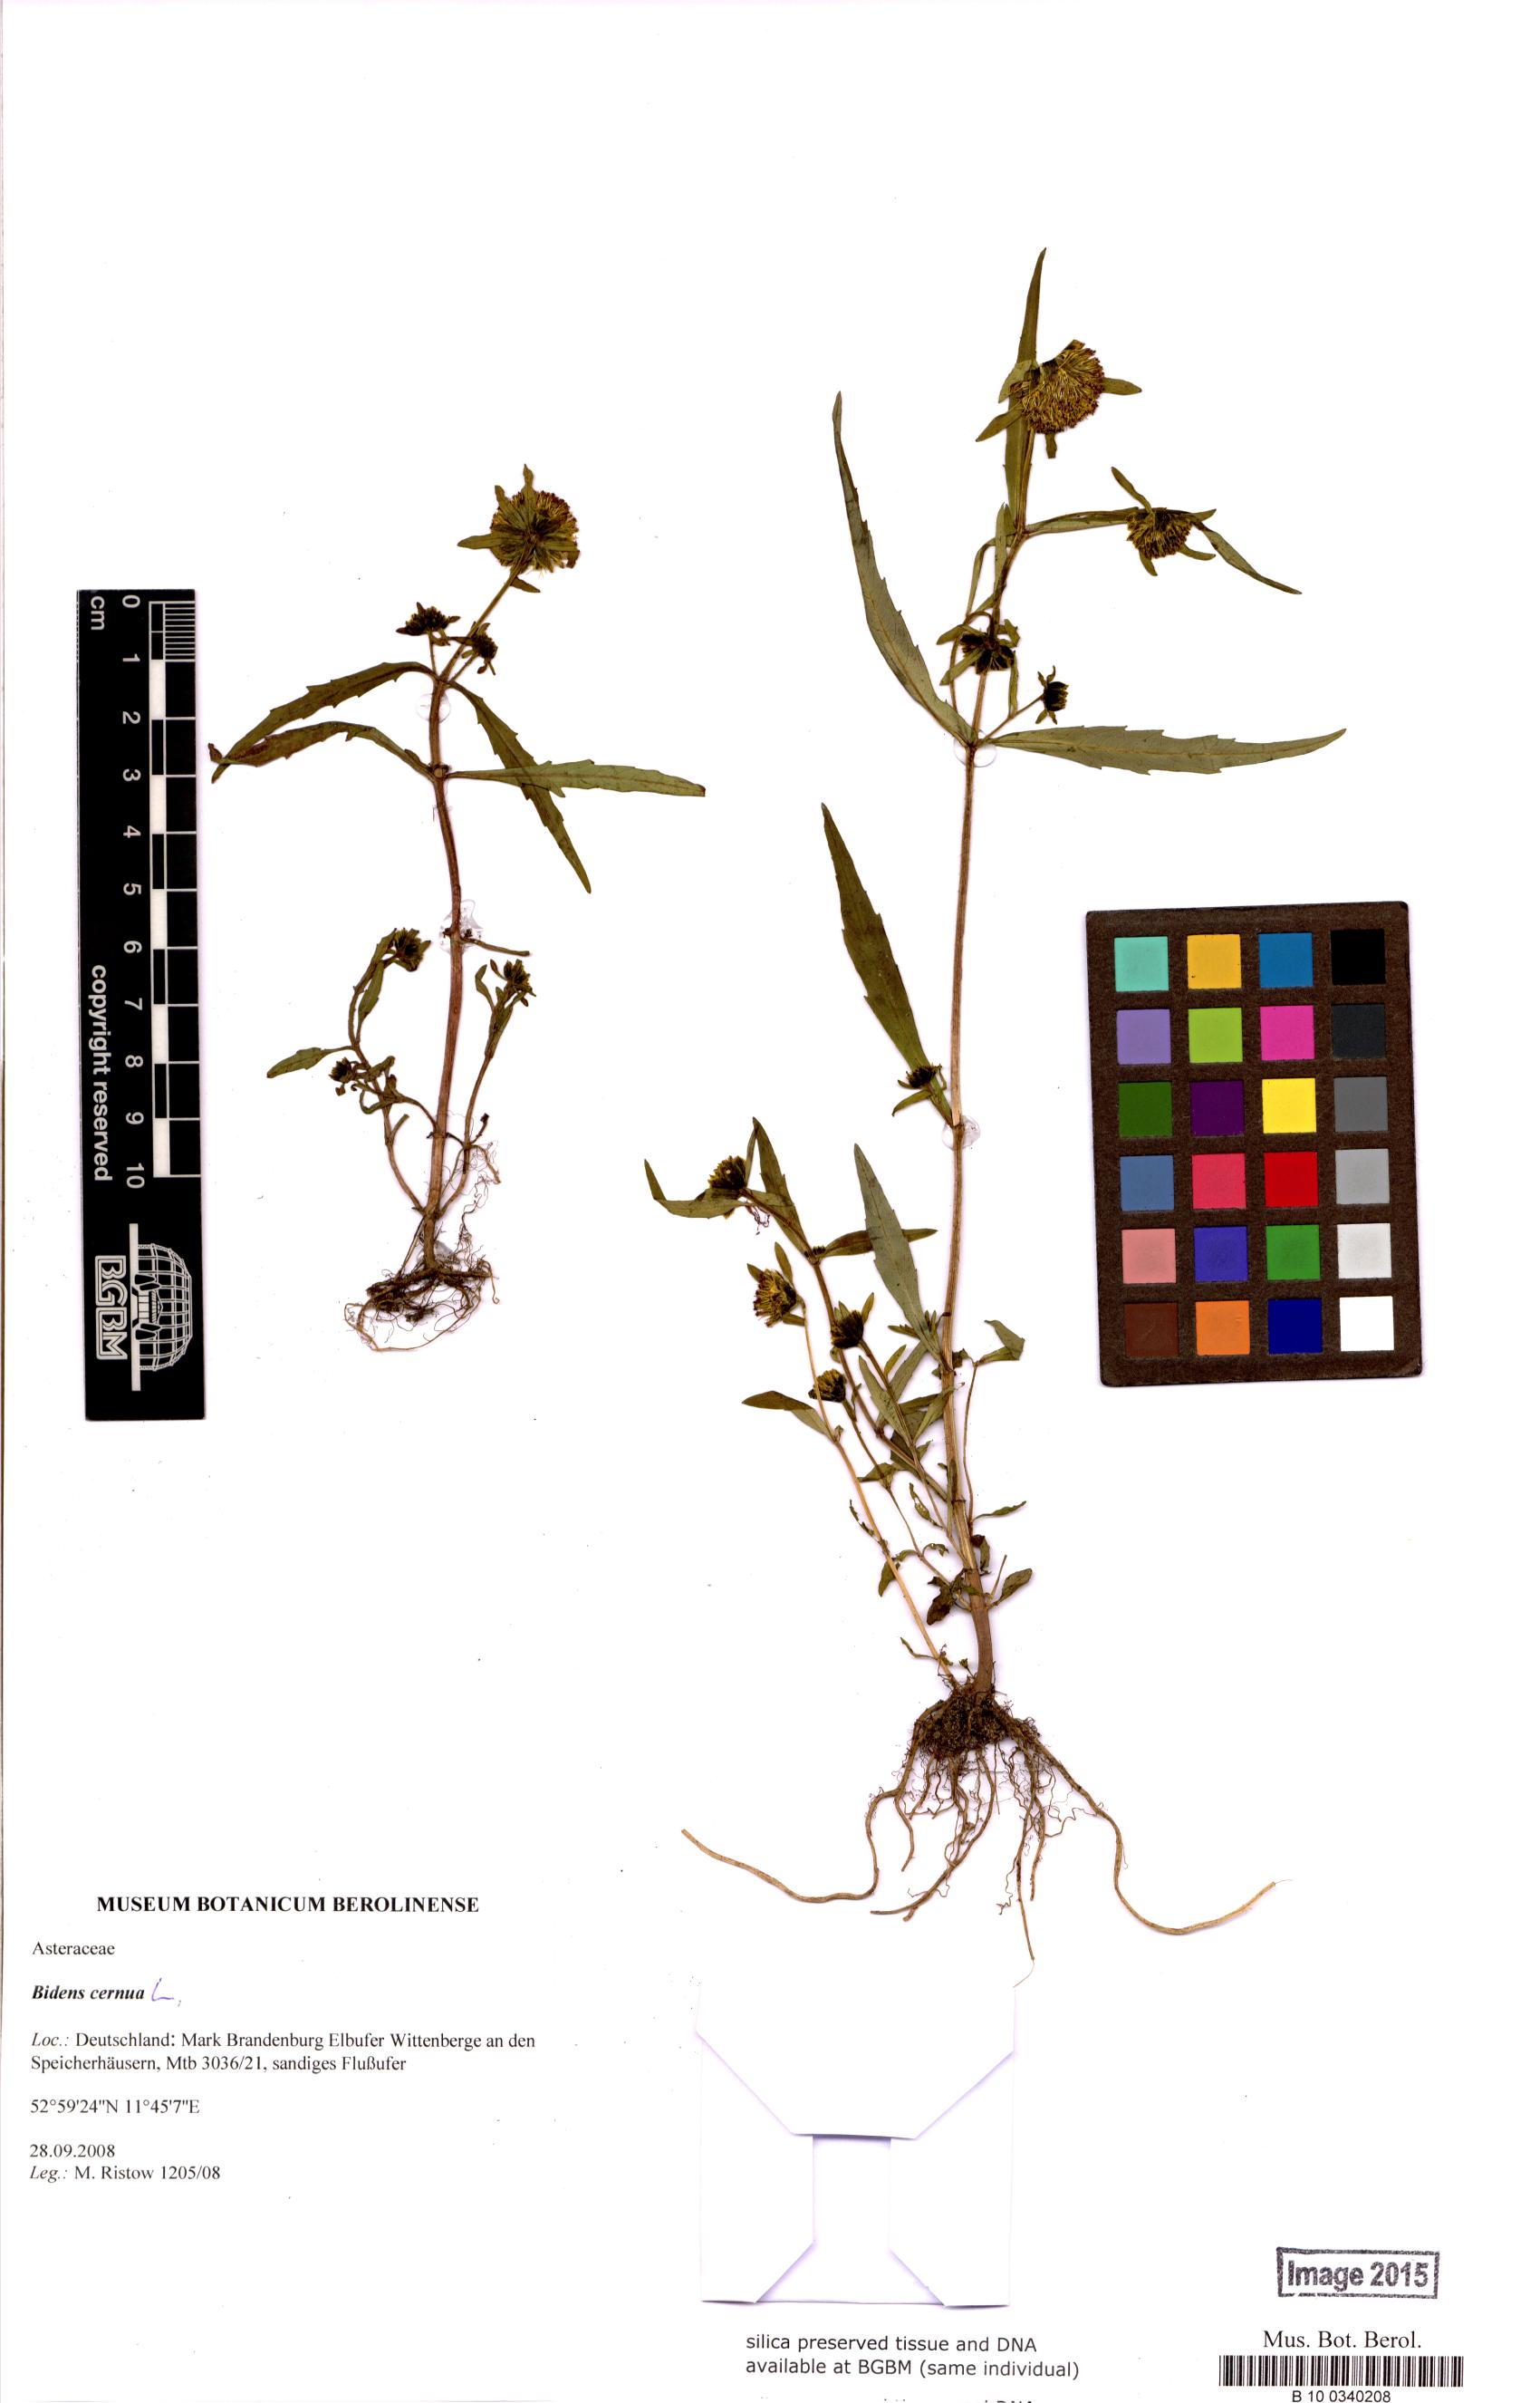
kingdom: Plantae
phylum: Tracheophyta
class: Magnoliopsida
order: Asterales
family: Asteraceae
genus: Bidens
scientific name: Bidens cernua
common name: Nodding bur-marigold
